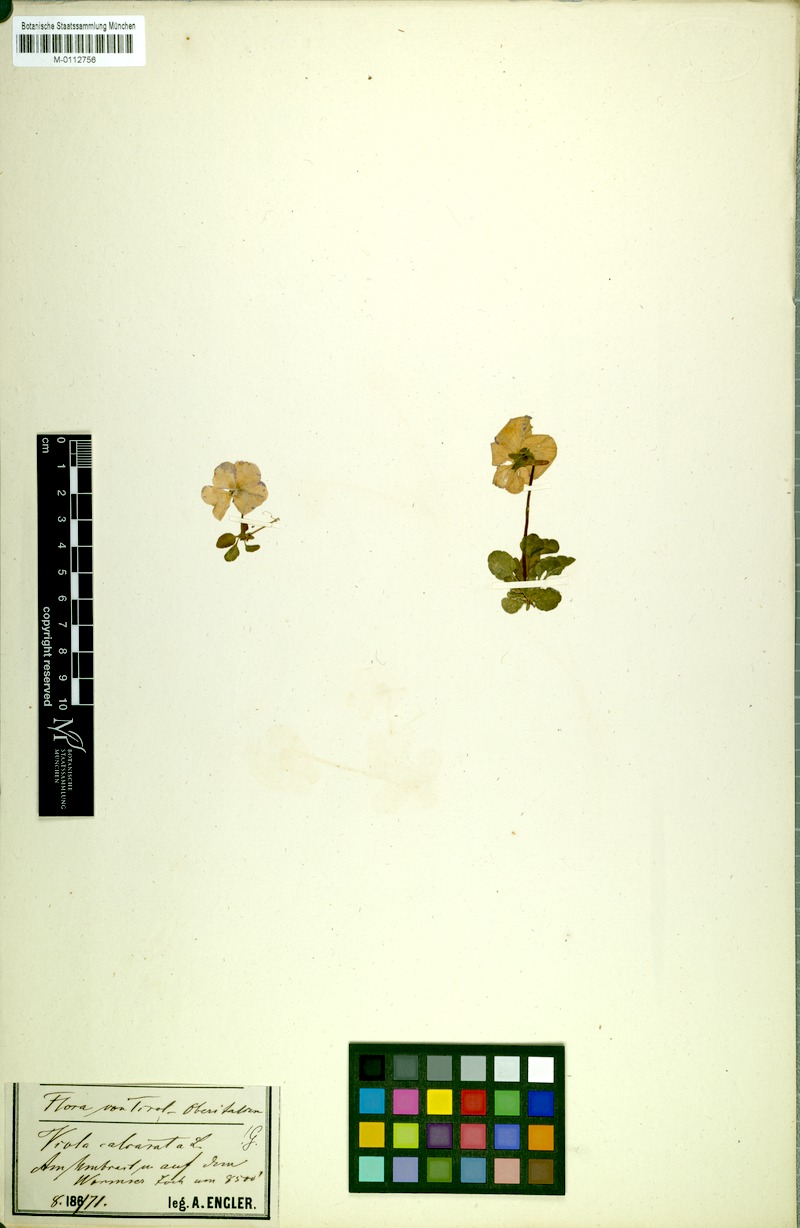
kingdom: Plantae
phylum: Tracheophyta
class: Magnoliopsida
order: Malpighiales
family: Violaceae
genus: Viola
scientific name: Viola calcarata
